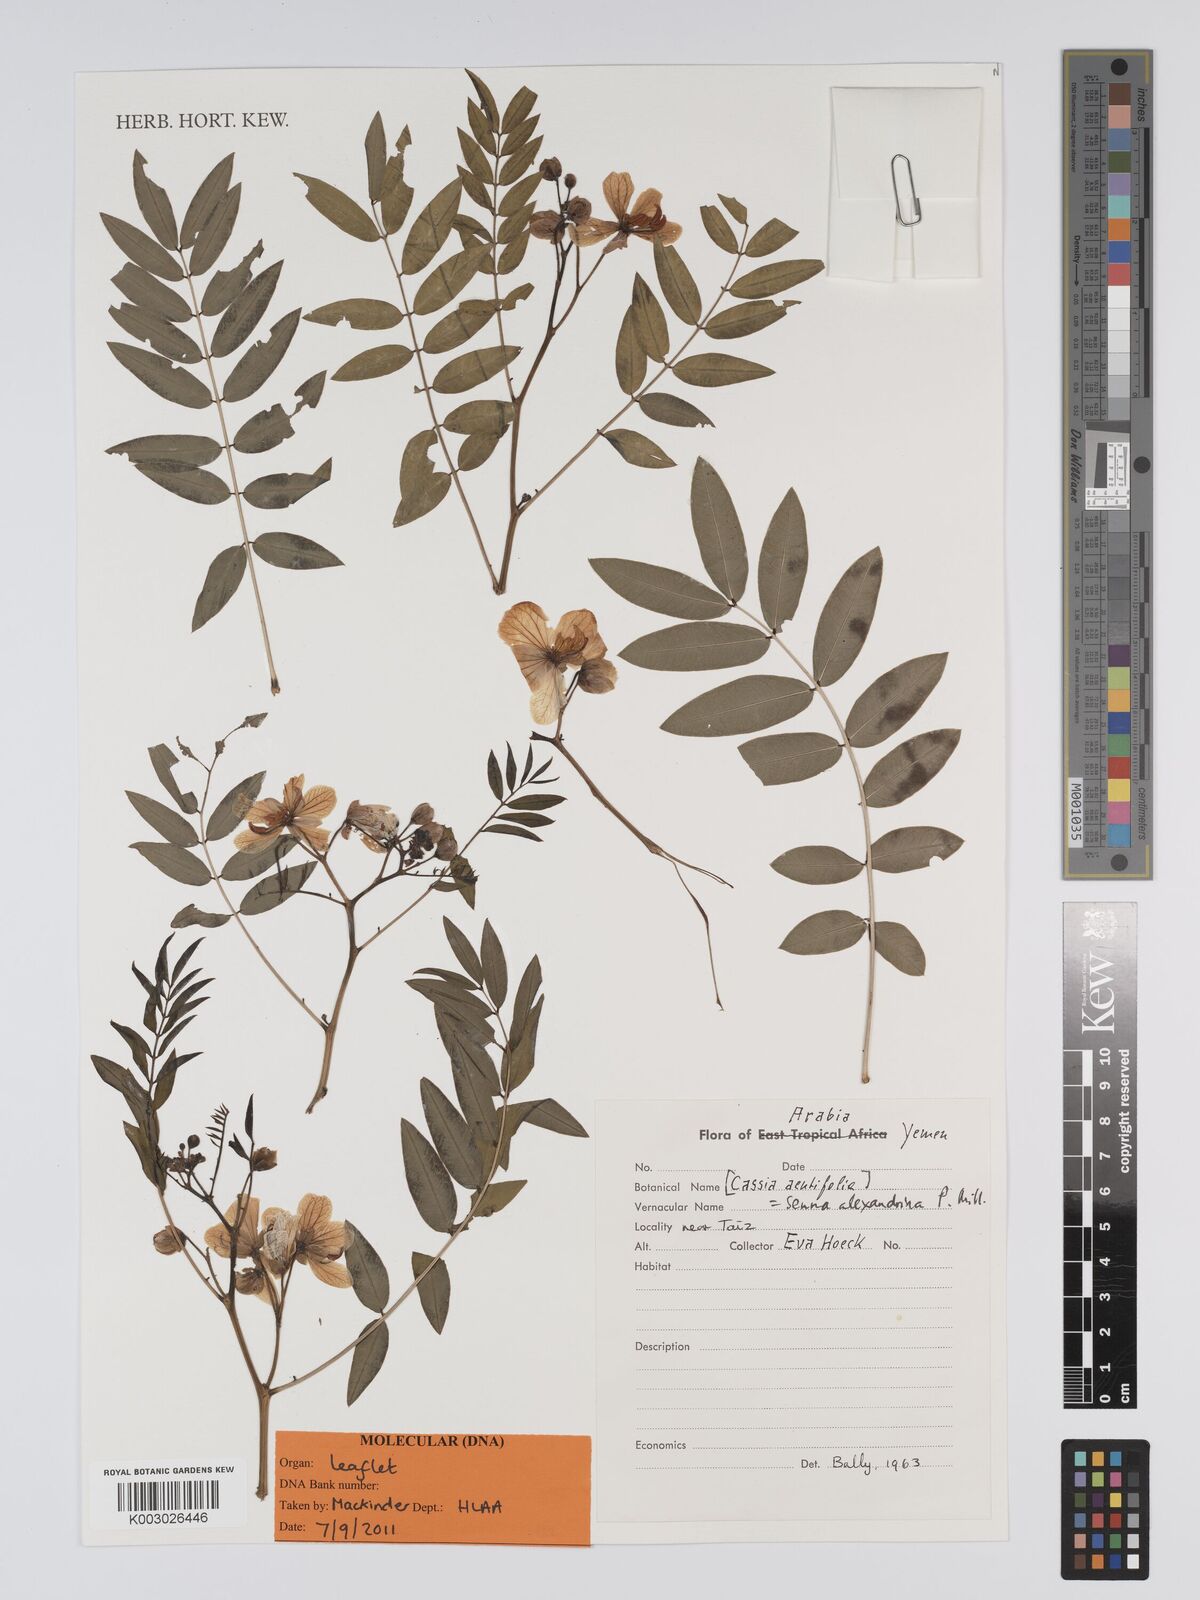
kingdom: Plantae
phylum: Tracheophyta
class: Magnoliopsida
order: Fabales
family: Fabaceae
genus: Senna
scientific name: Senna alexandrina
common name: True senna
